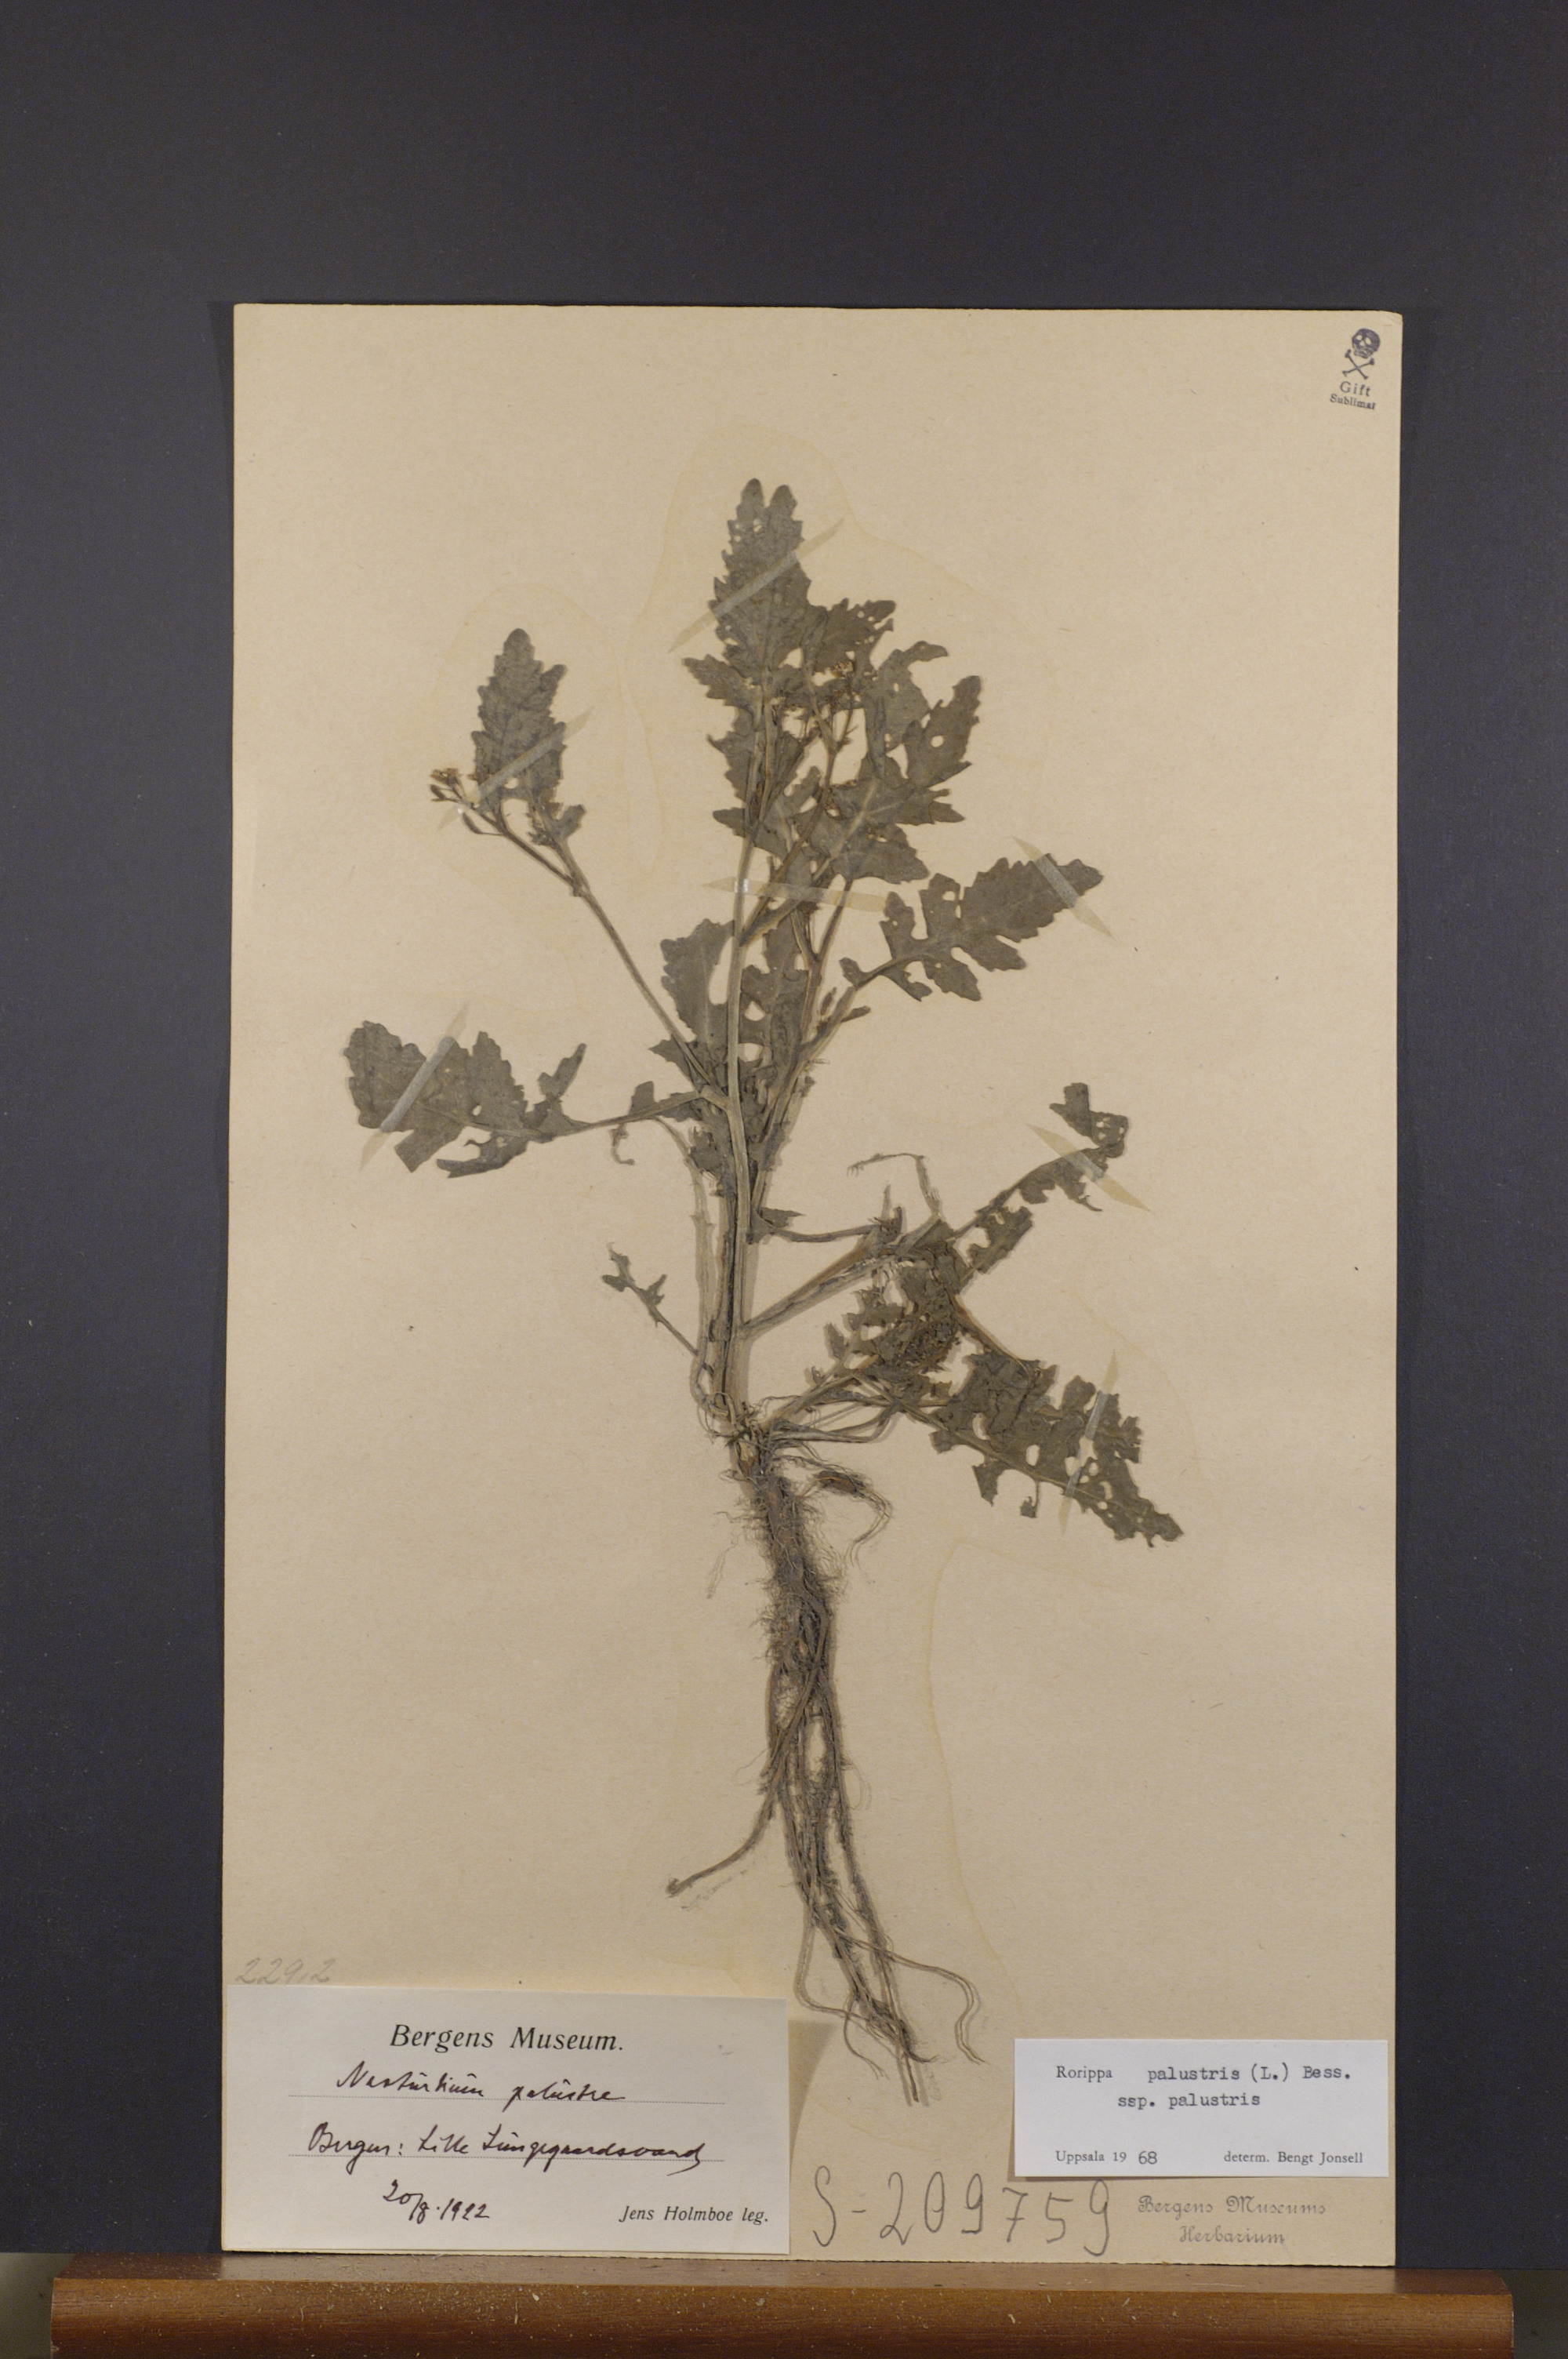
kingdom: Plantae
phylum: Tracheophyta
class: Magnoliopsida
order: Brassicales
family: Brassicaceae
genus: Rorippa
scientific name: Rorippa palustris
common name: Marsh yellow-cress
